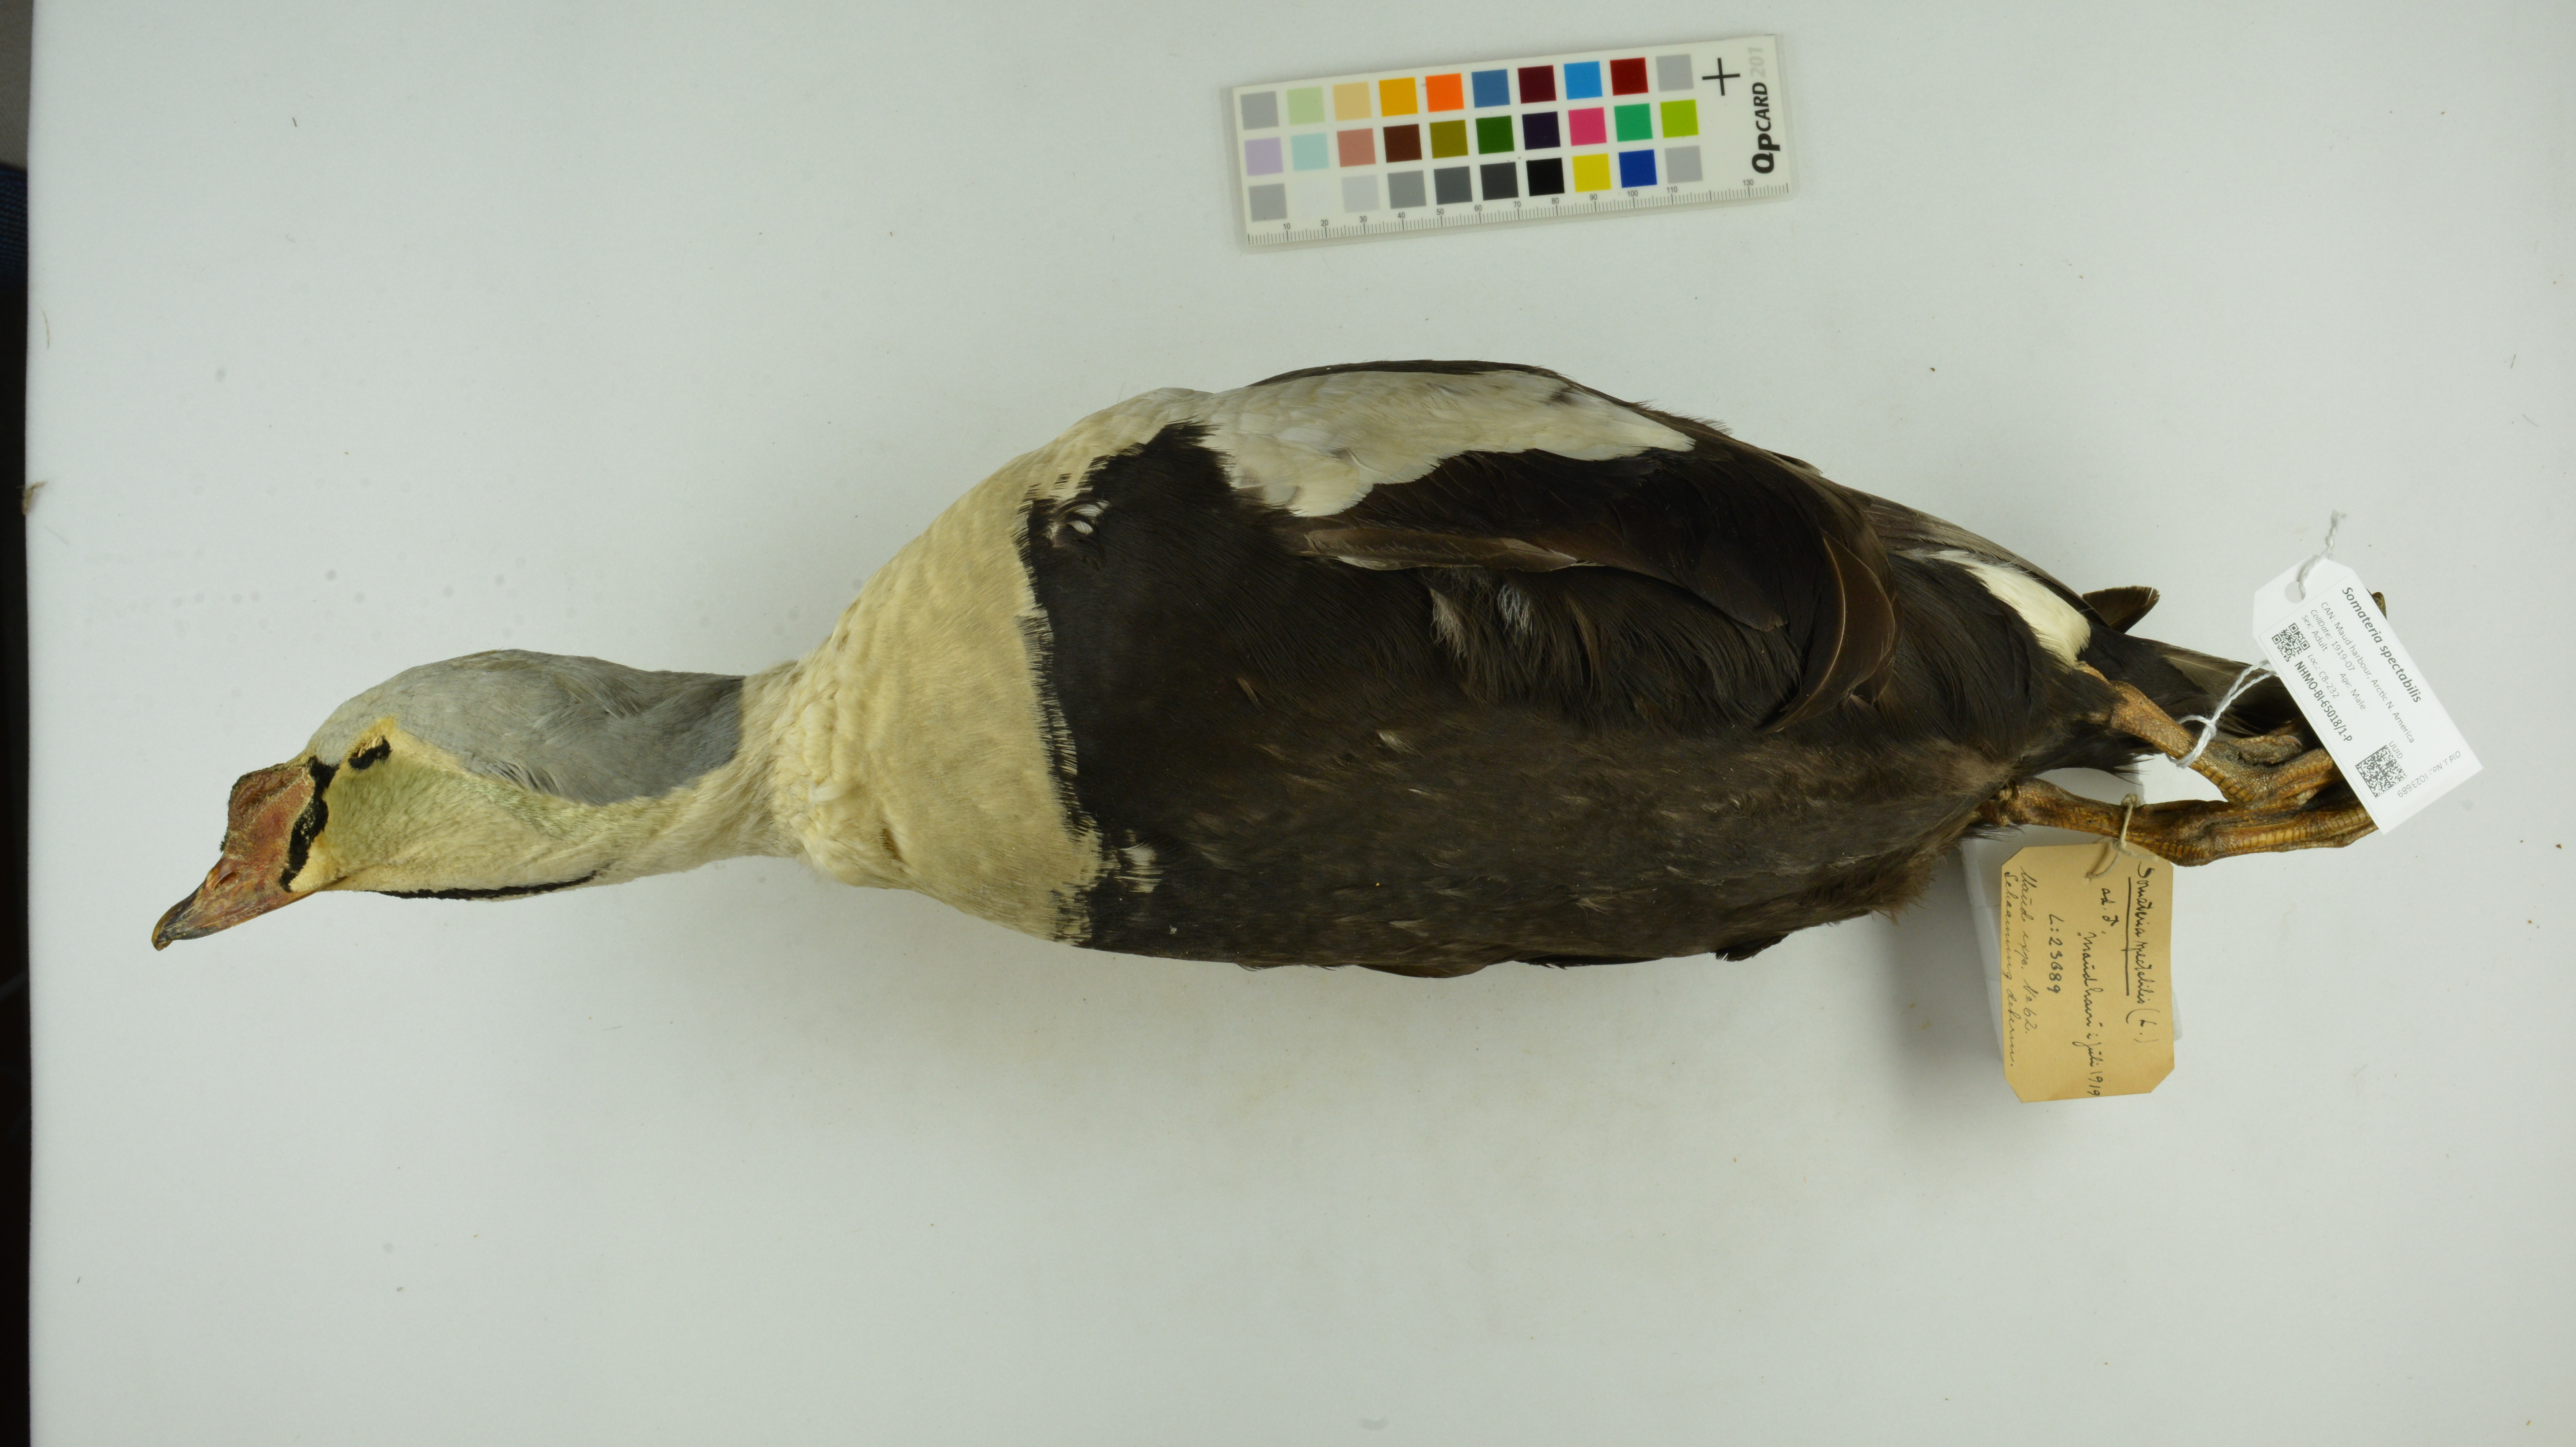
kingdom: Animalia
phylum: Chordata
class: Aves
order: Anseriformes
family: Anatidae
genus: Somateria
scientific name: Somateria spectabilis
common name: King eider
